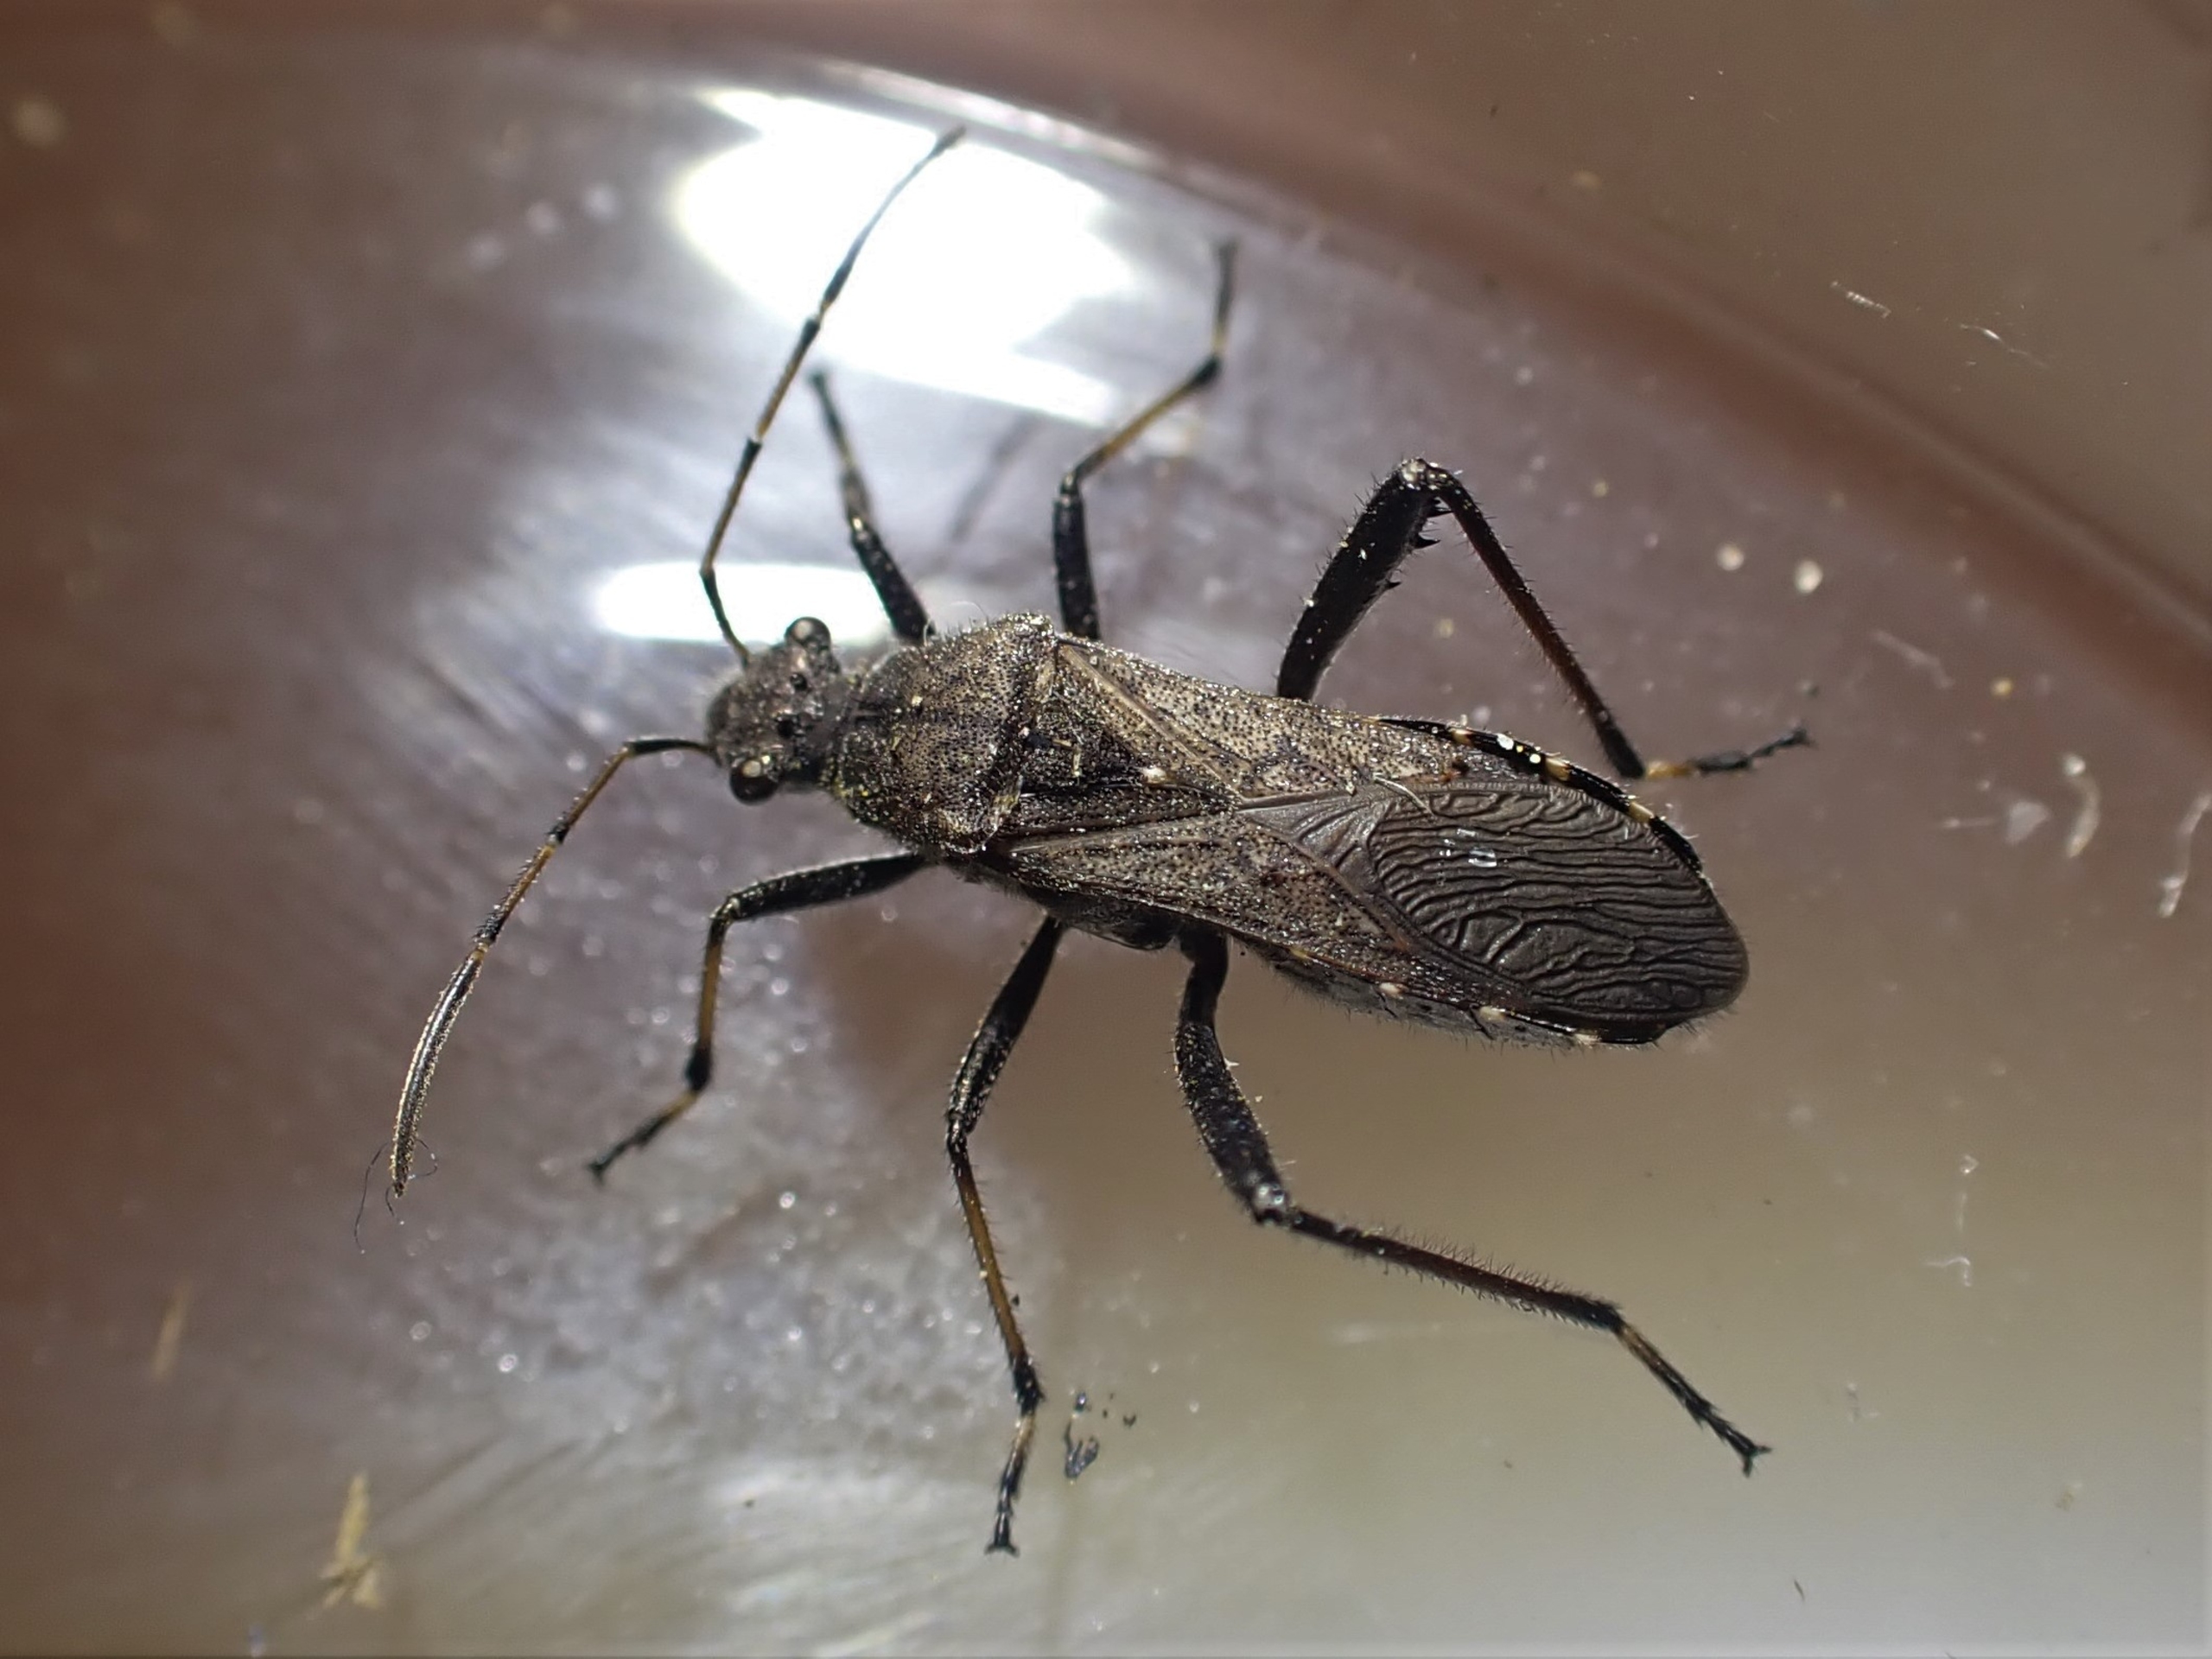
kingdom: Animalia
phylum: Arthropoda
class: Insecta
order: Hemiptera
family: Alydidae
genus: Alydus
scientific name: Alydus calcaratus
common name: Hvepsetæge
